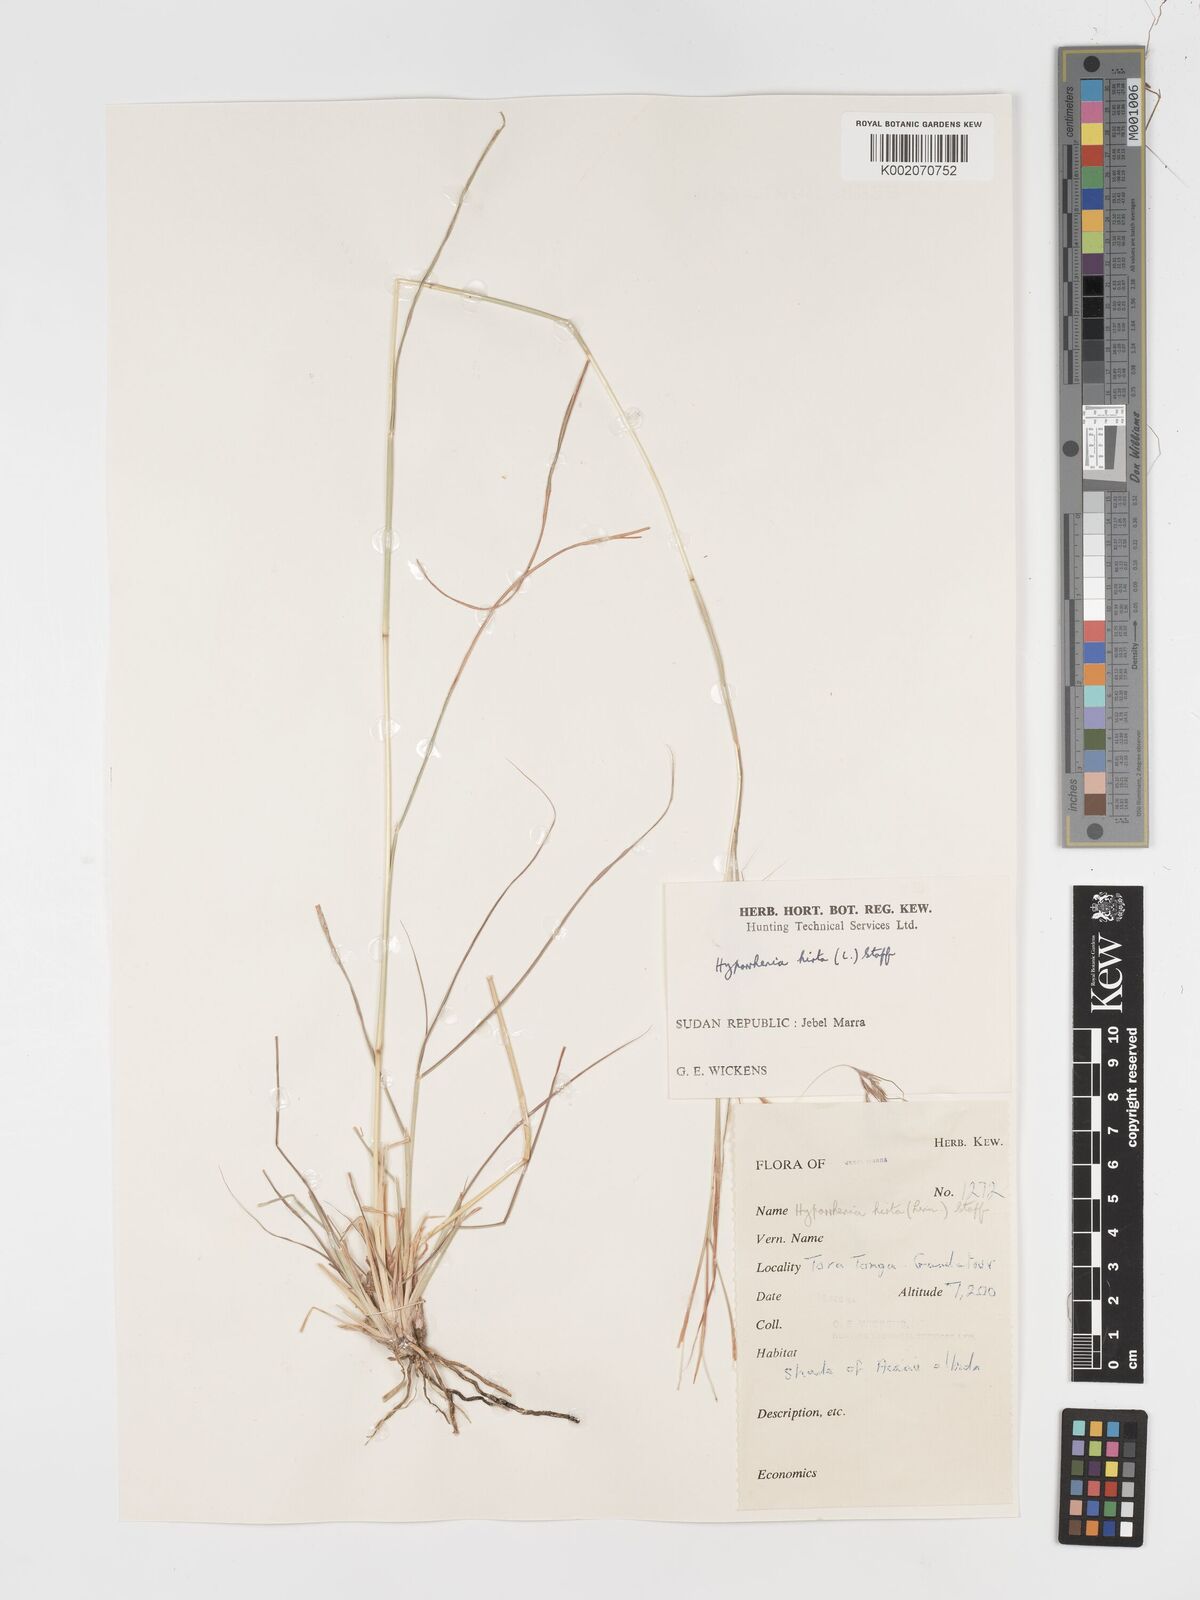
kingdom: Plantae
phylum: Tracheophyta
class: Liliopsida
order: Poales
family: Poaceae
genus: Hyparrhenia
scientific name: Hyparrhenia hirta
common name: Thatching grass
